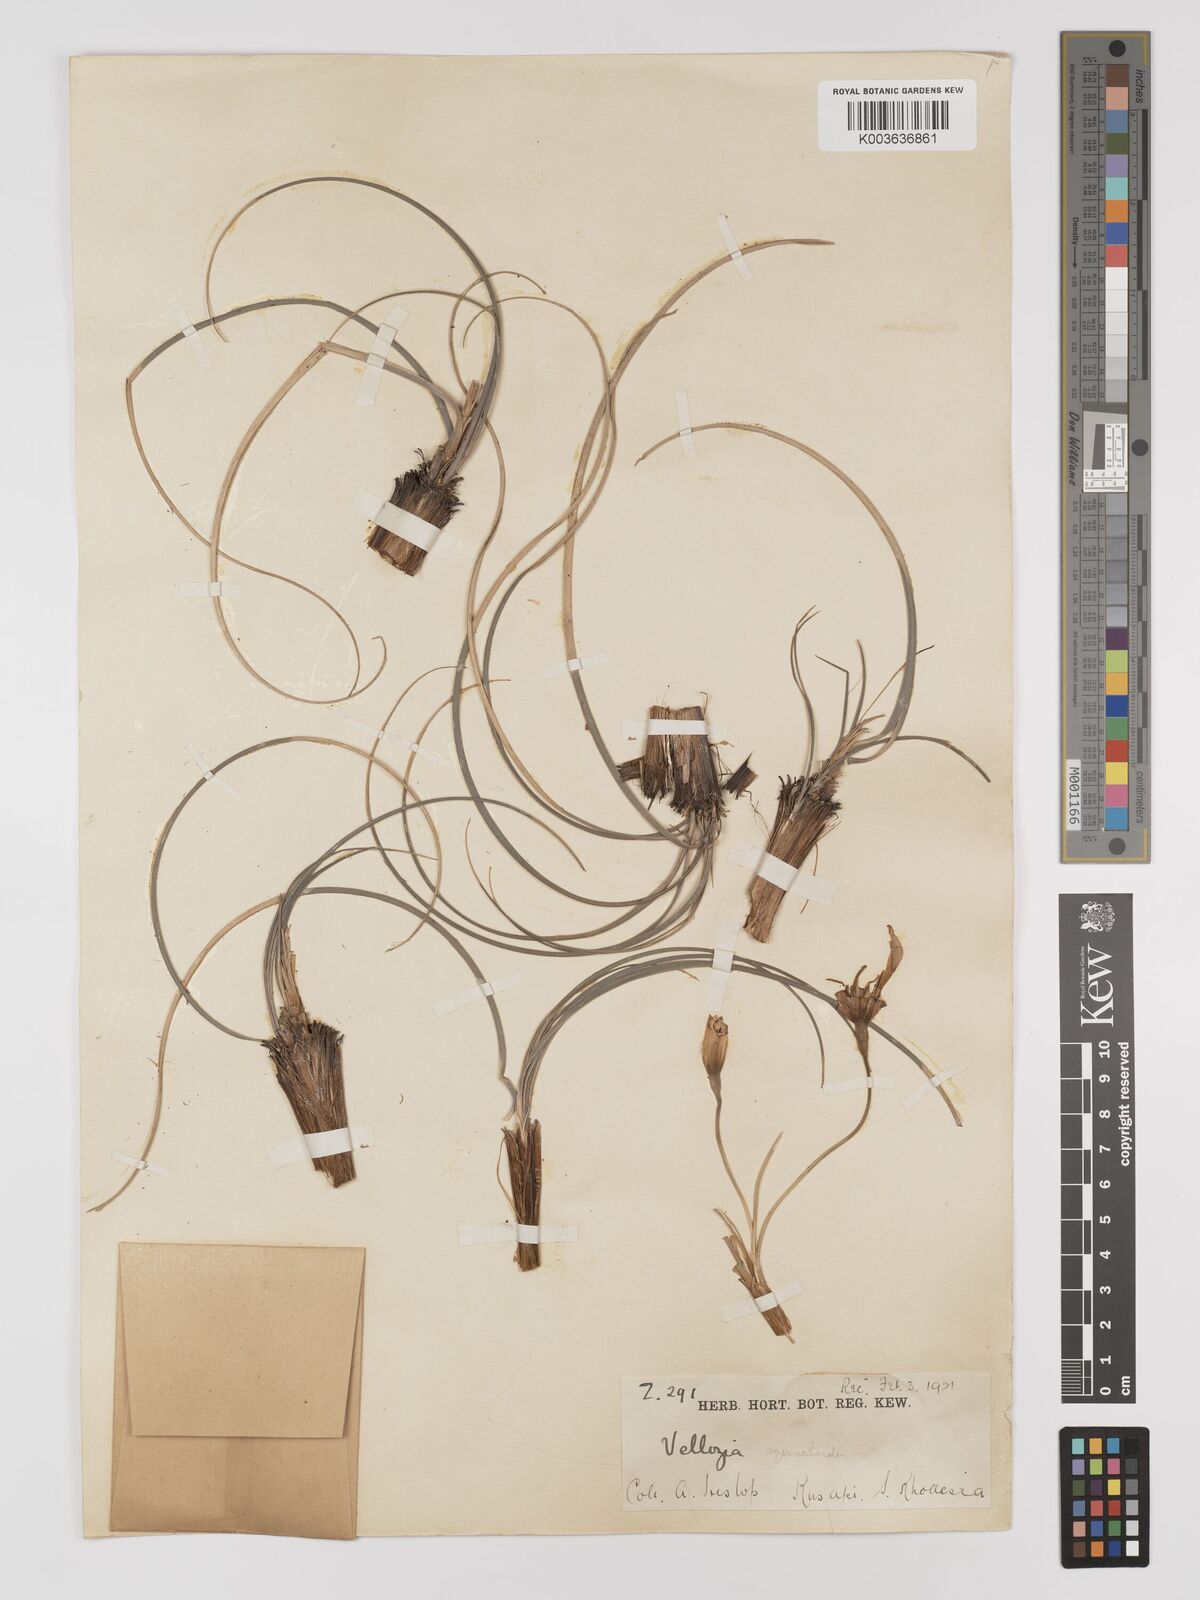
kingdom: Plantae
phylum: Tracheophyta
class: Liliopsida
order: Pandanales
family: Velloziaceae
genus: Xerophyta
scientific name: Xerophyta equisetoides
